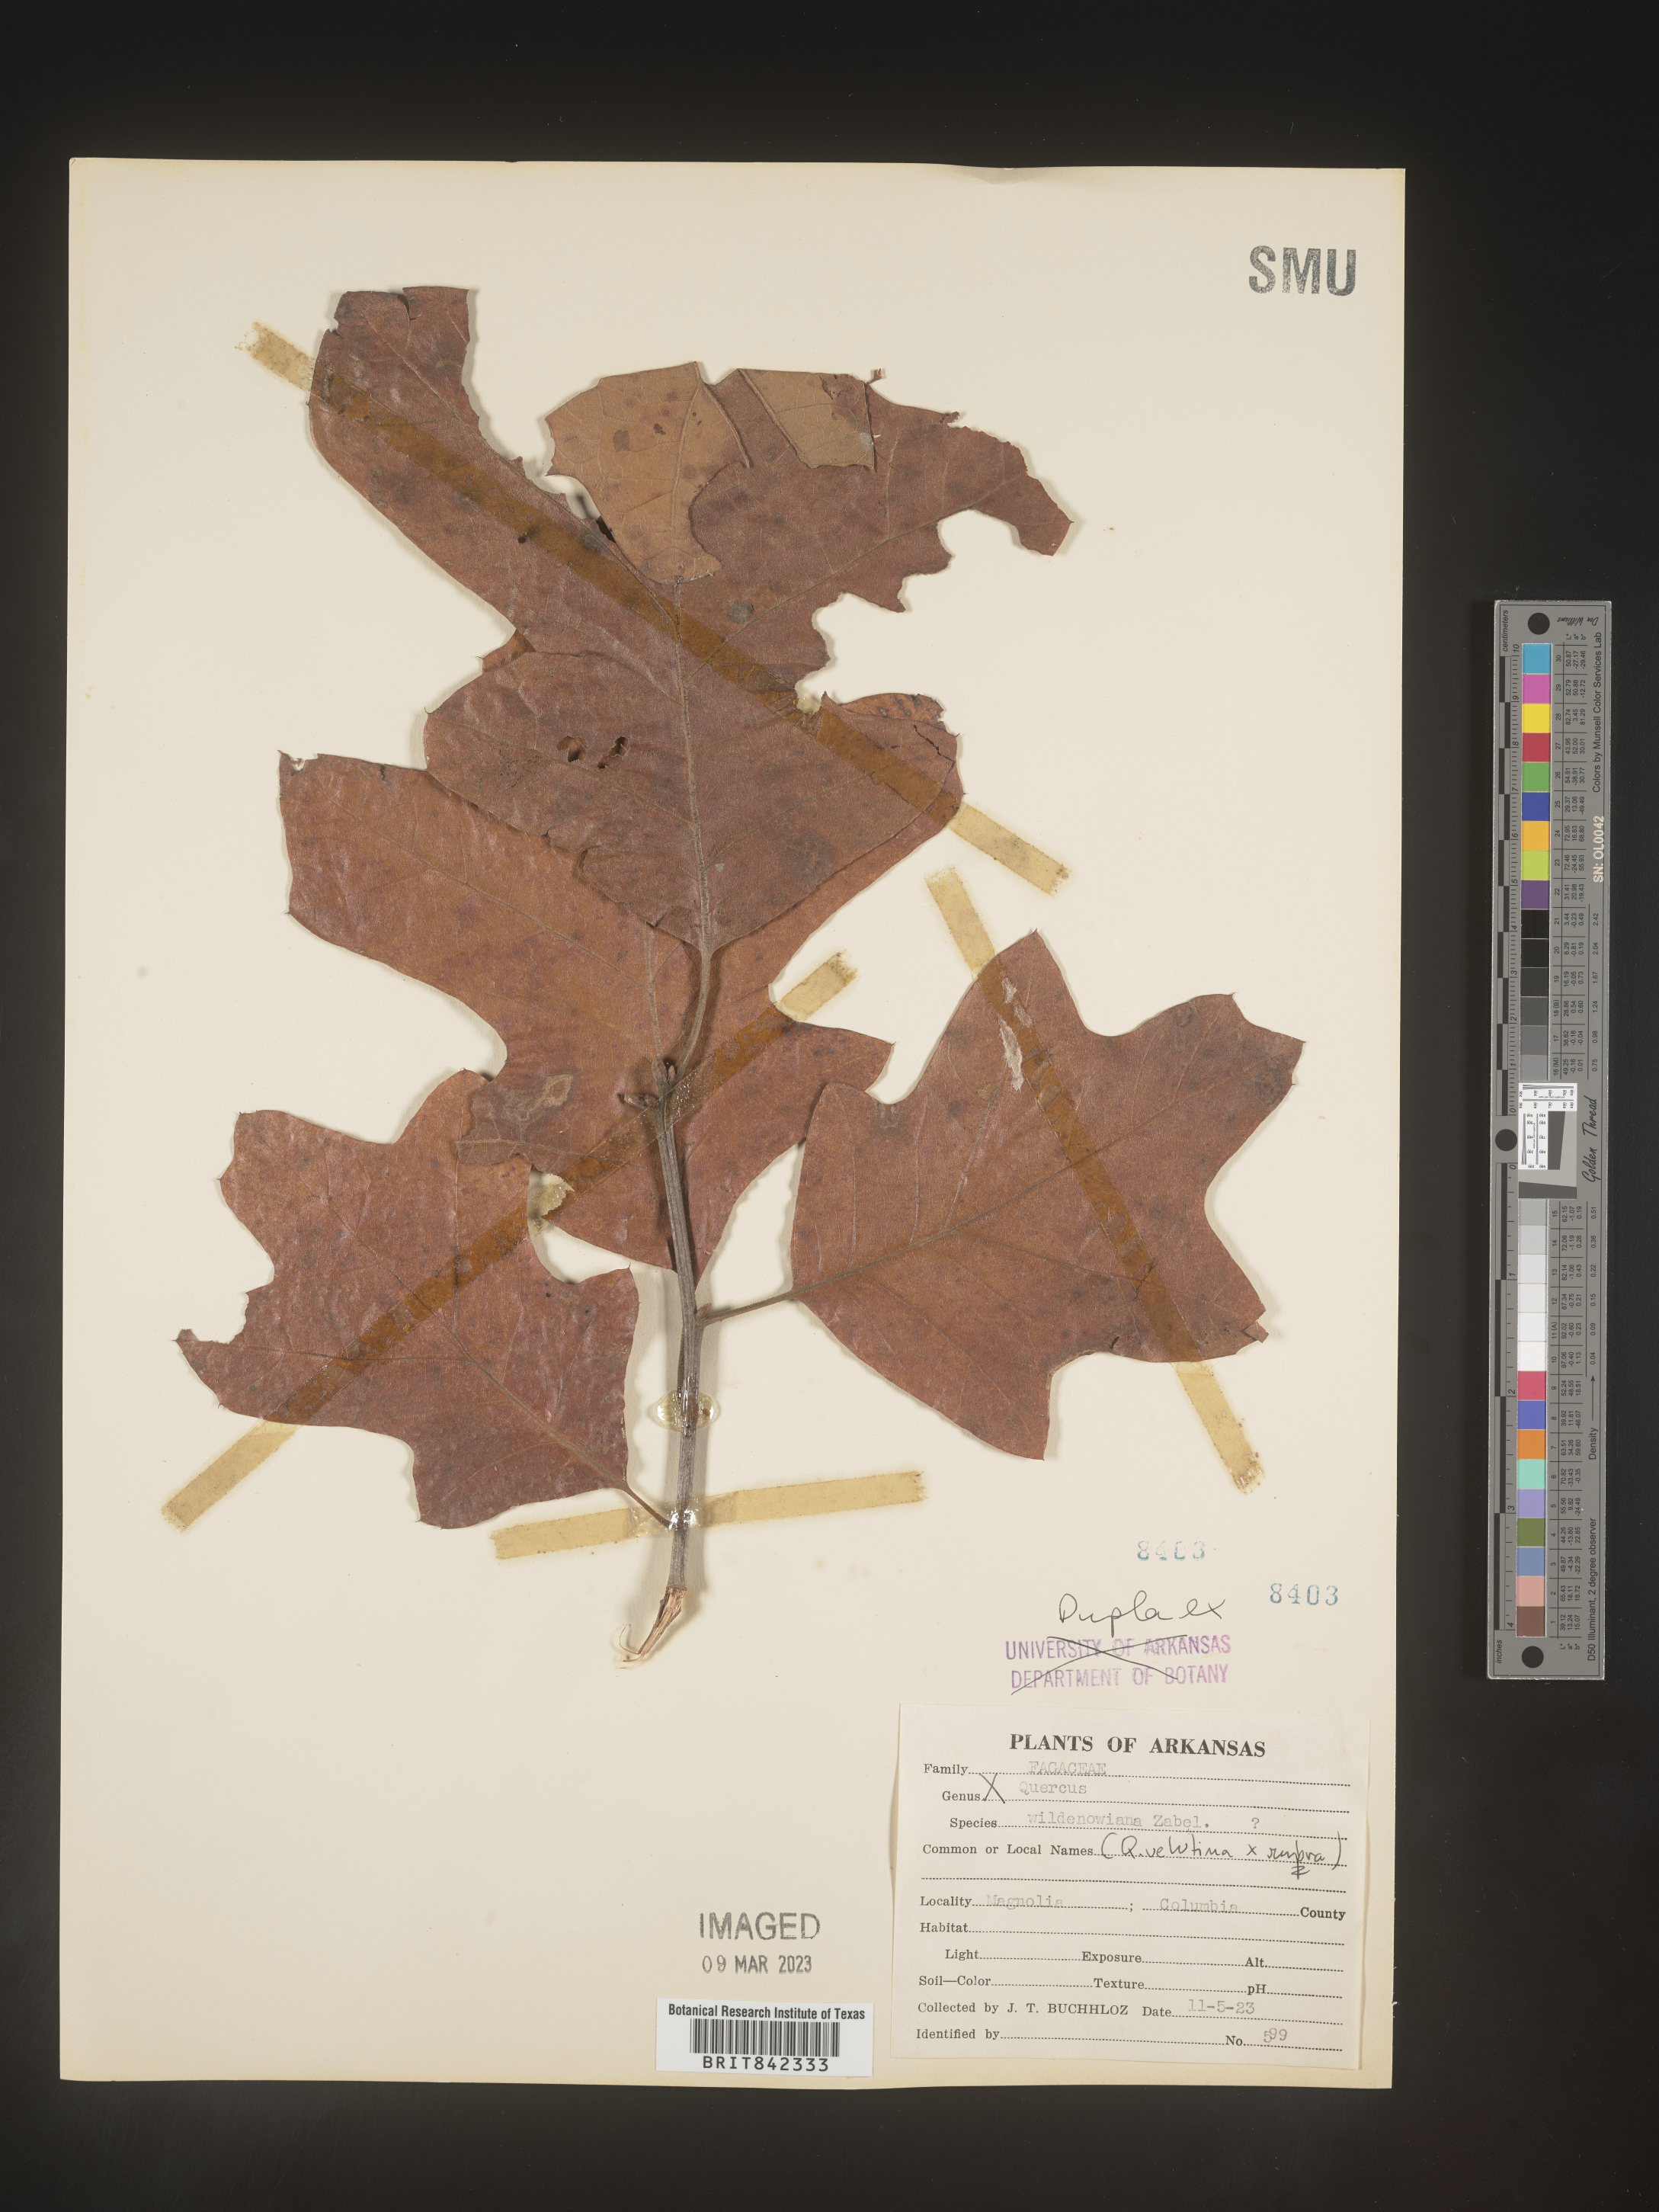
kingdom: Plantae
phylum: Tracheophyta
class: Magnoliopsida
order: Fagales
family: Fagaceae
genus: Quercus
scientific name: Quercus
